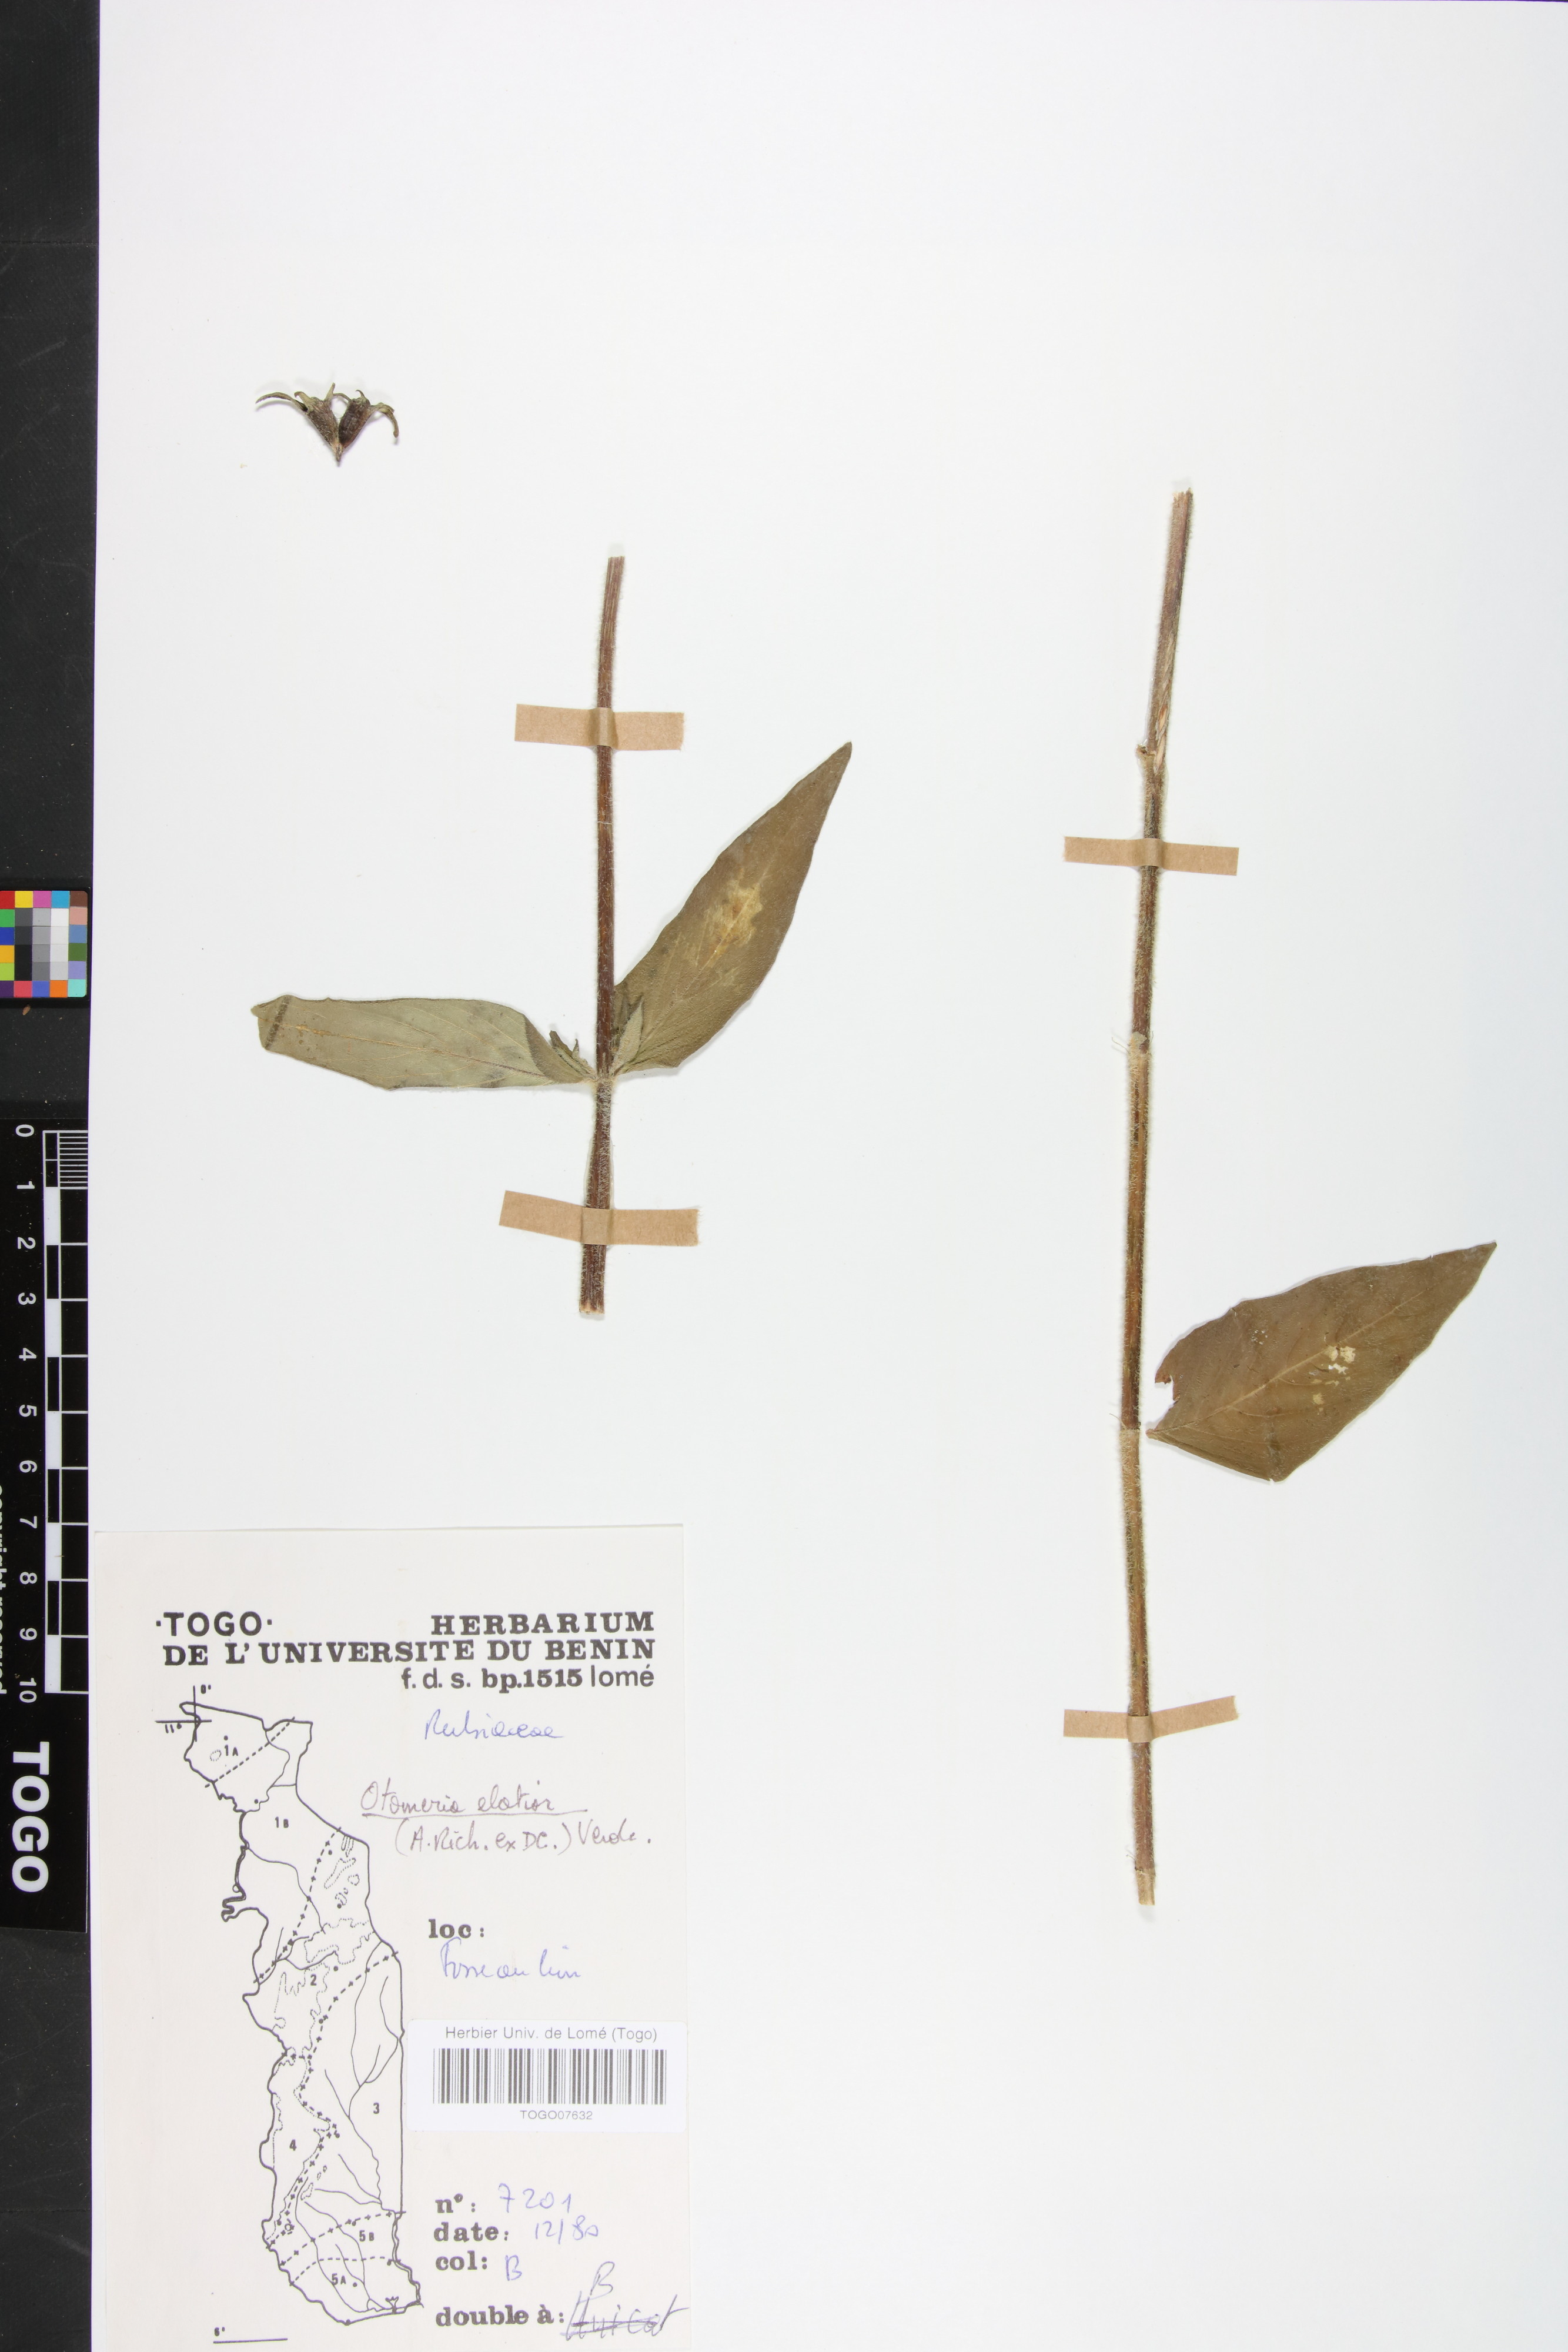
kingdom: Plantae
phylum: Tracheophyta
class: Magnoliopsida
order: Gentianales
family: Rubiaceae
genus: Otomeria
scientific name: Otomeria elatior
